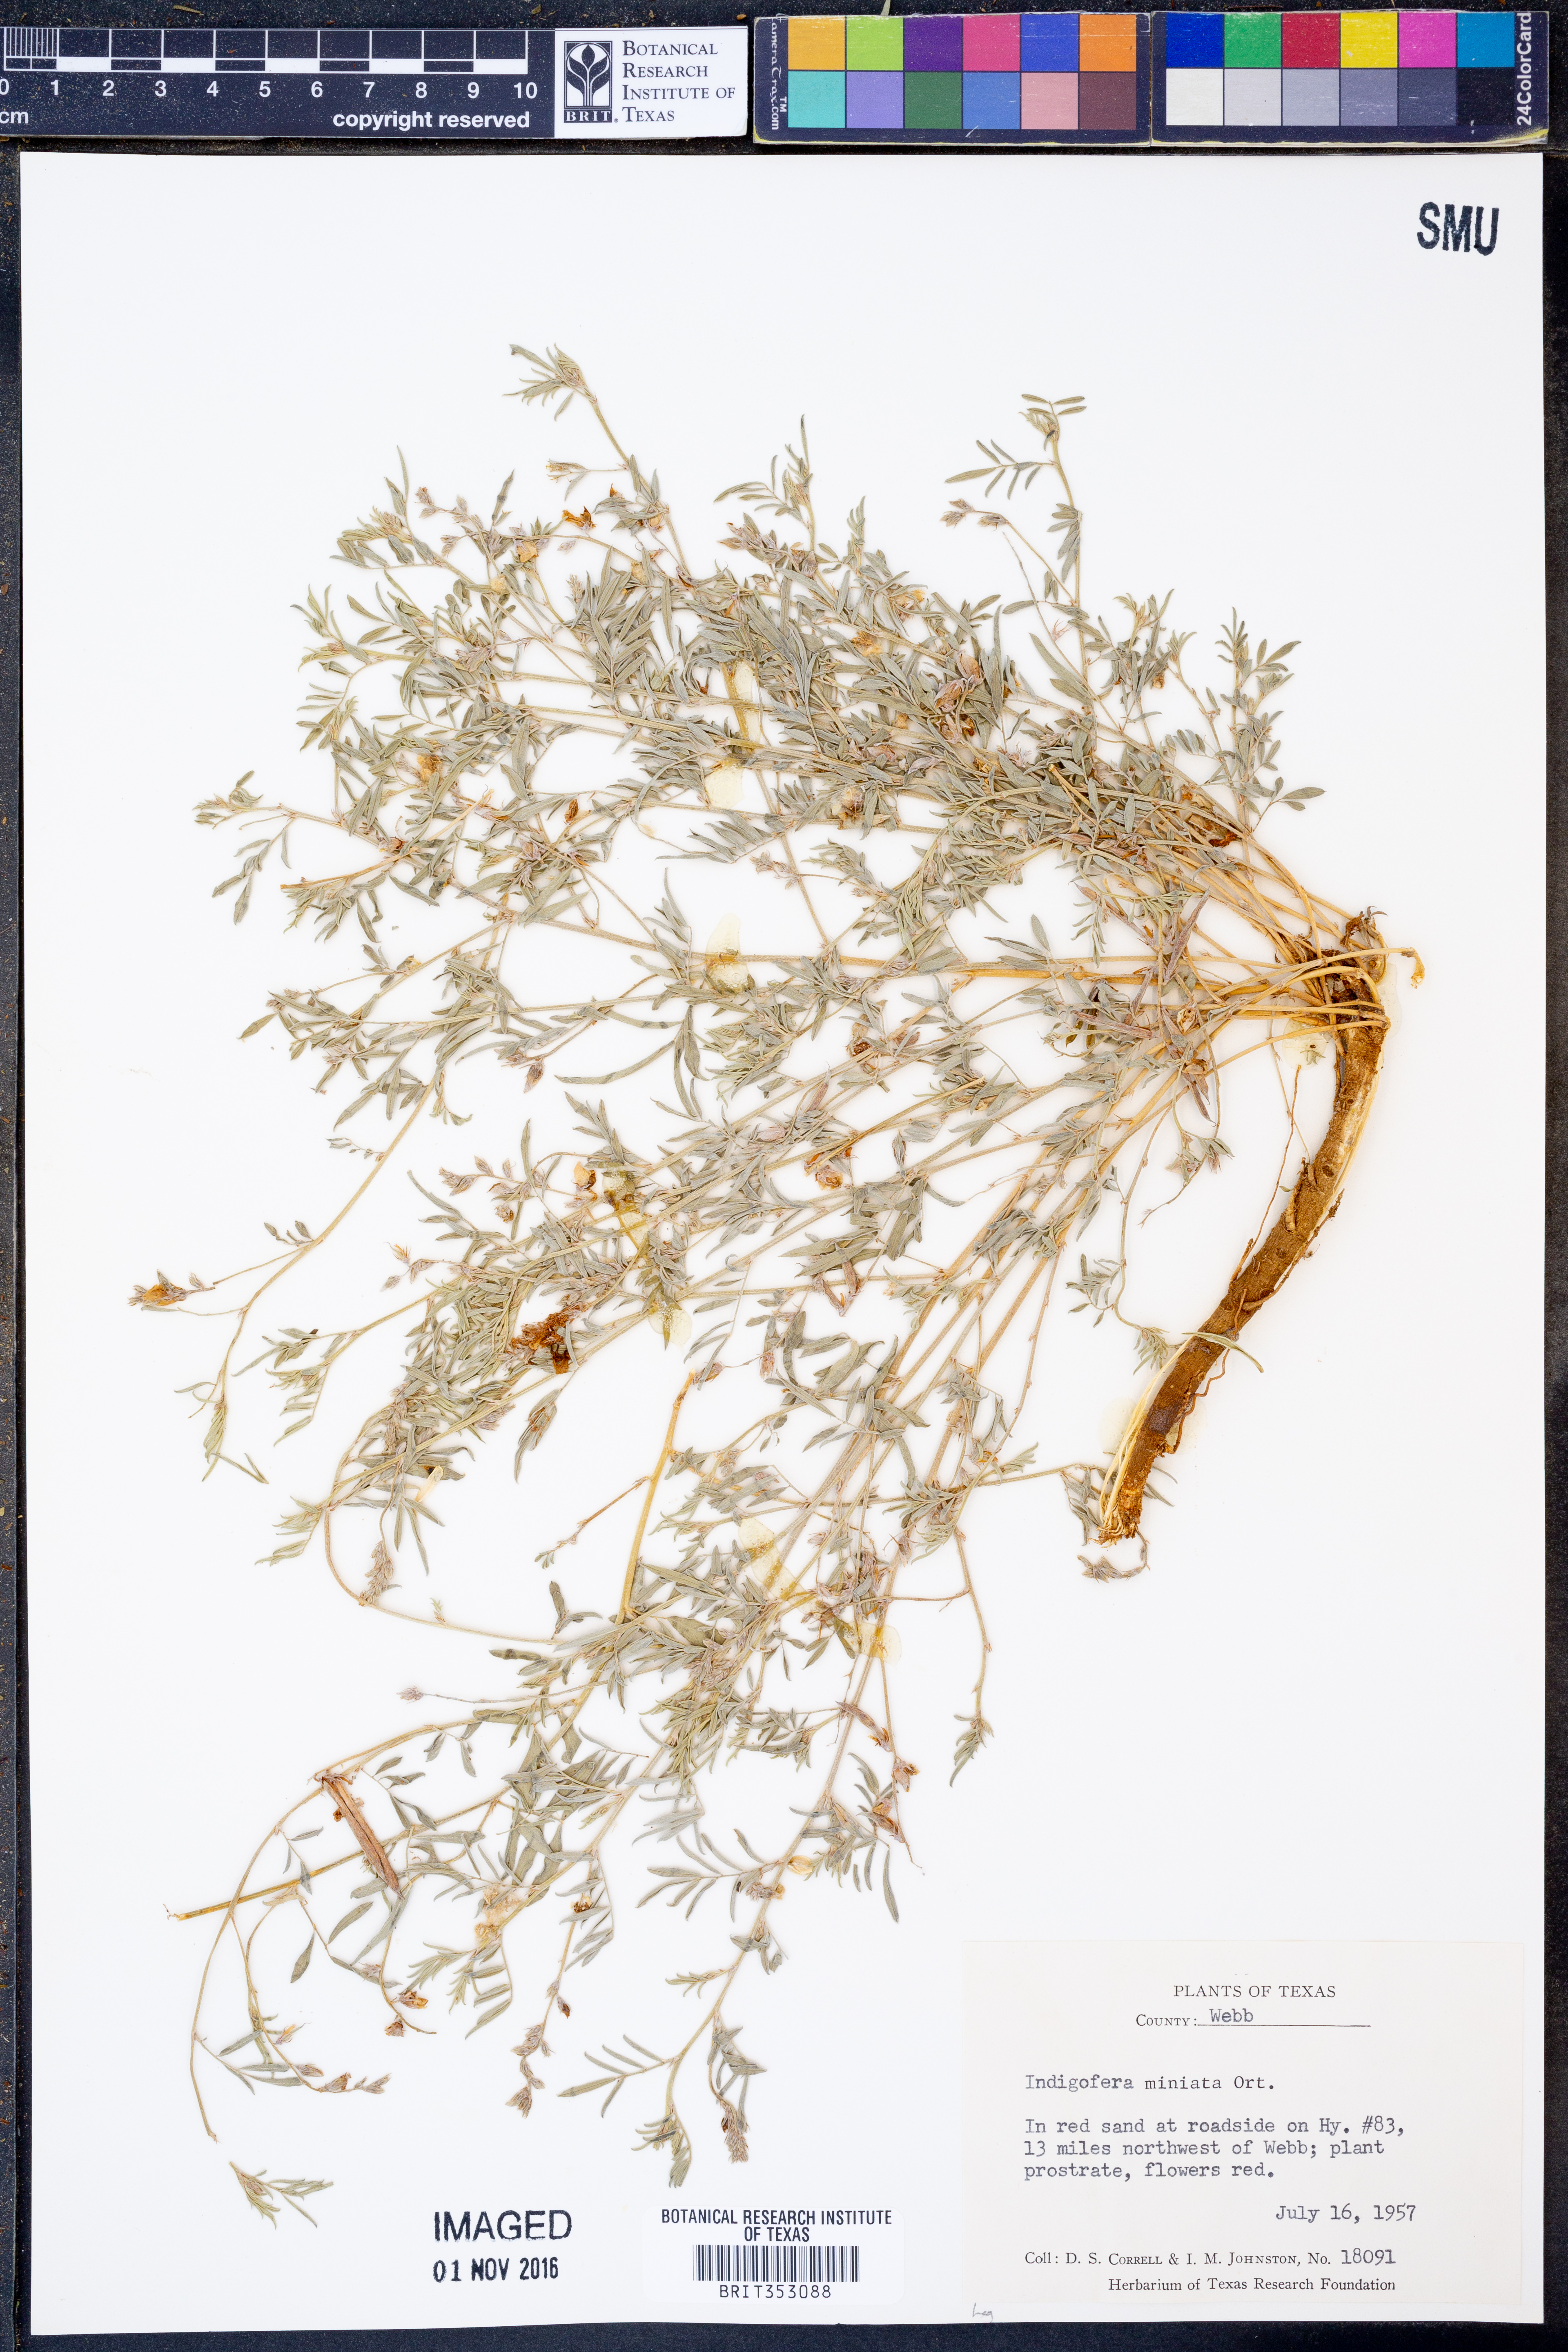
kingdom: Plantae
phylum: Tracheophyta
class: Magnoliopsida
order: Fabales
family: Fabaceae
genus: Indigofera
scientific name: Indigofera miniata
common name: Coast indigo
